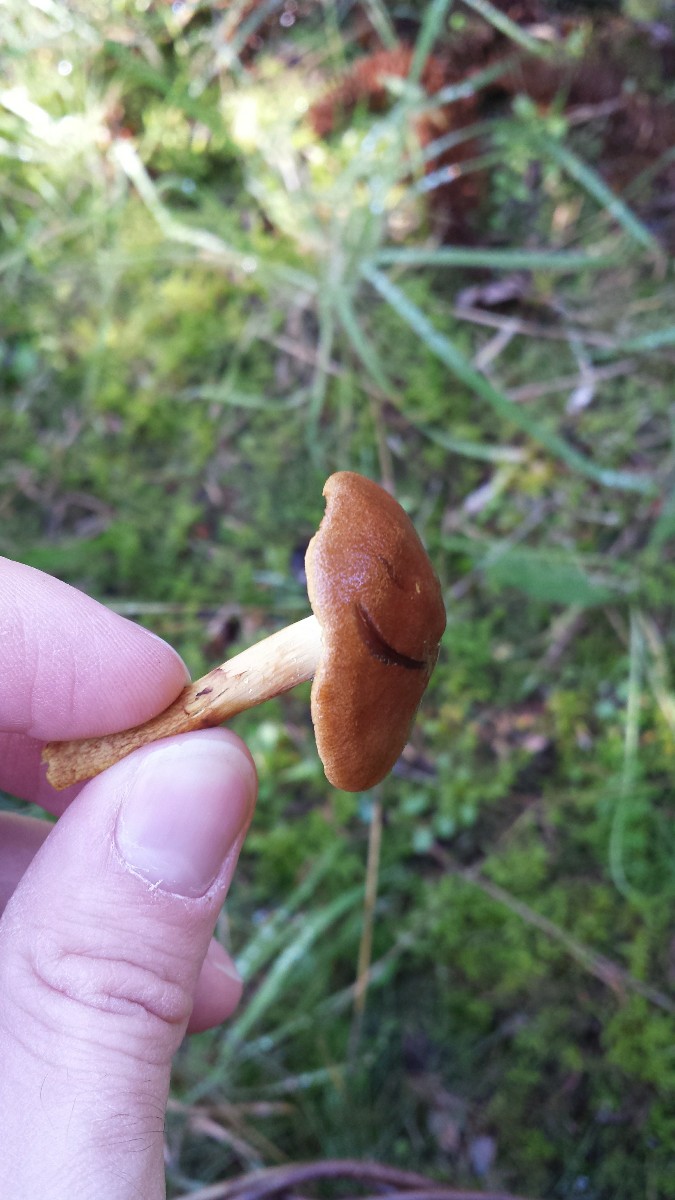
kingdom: Fungi
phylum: Basidiomycota
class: Agaricomycetes
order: Agaricales
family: Cortinariaceae
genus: Cortinarius
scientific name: Cortinarius
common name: cinnoberbladet slørhat
